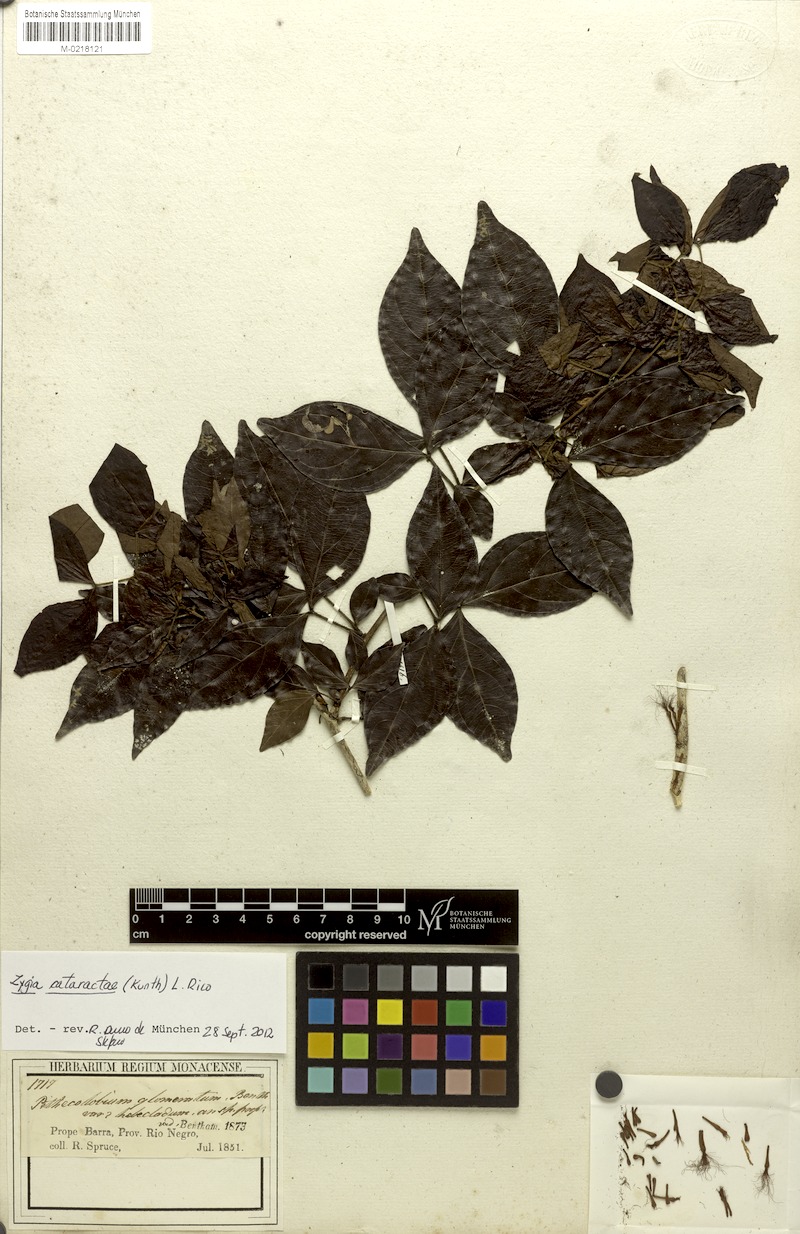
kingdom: Plantae
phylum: Tracheophyta
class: Magnoliopsida
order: Fabales
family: Fabaceae
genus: Zygia
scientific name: Zygia cataractae
